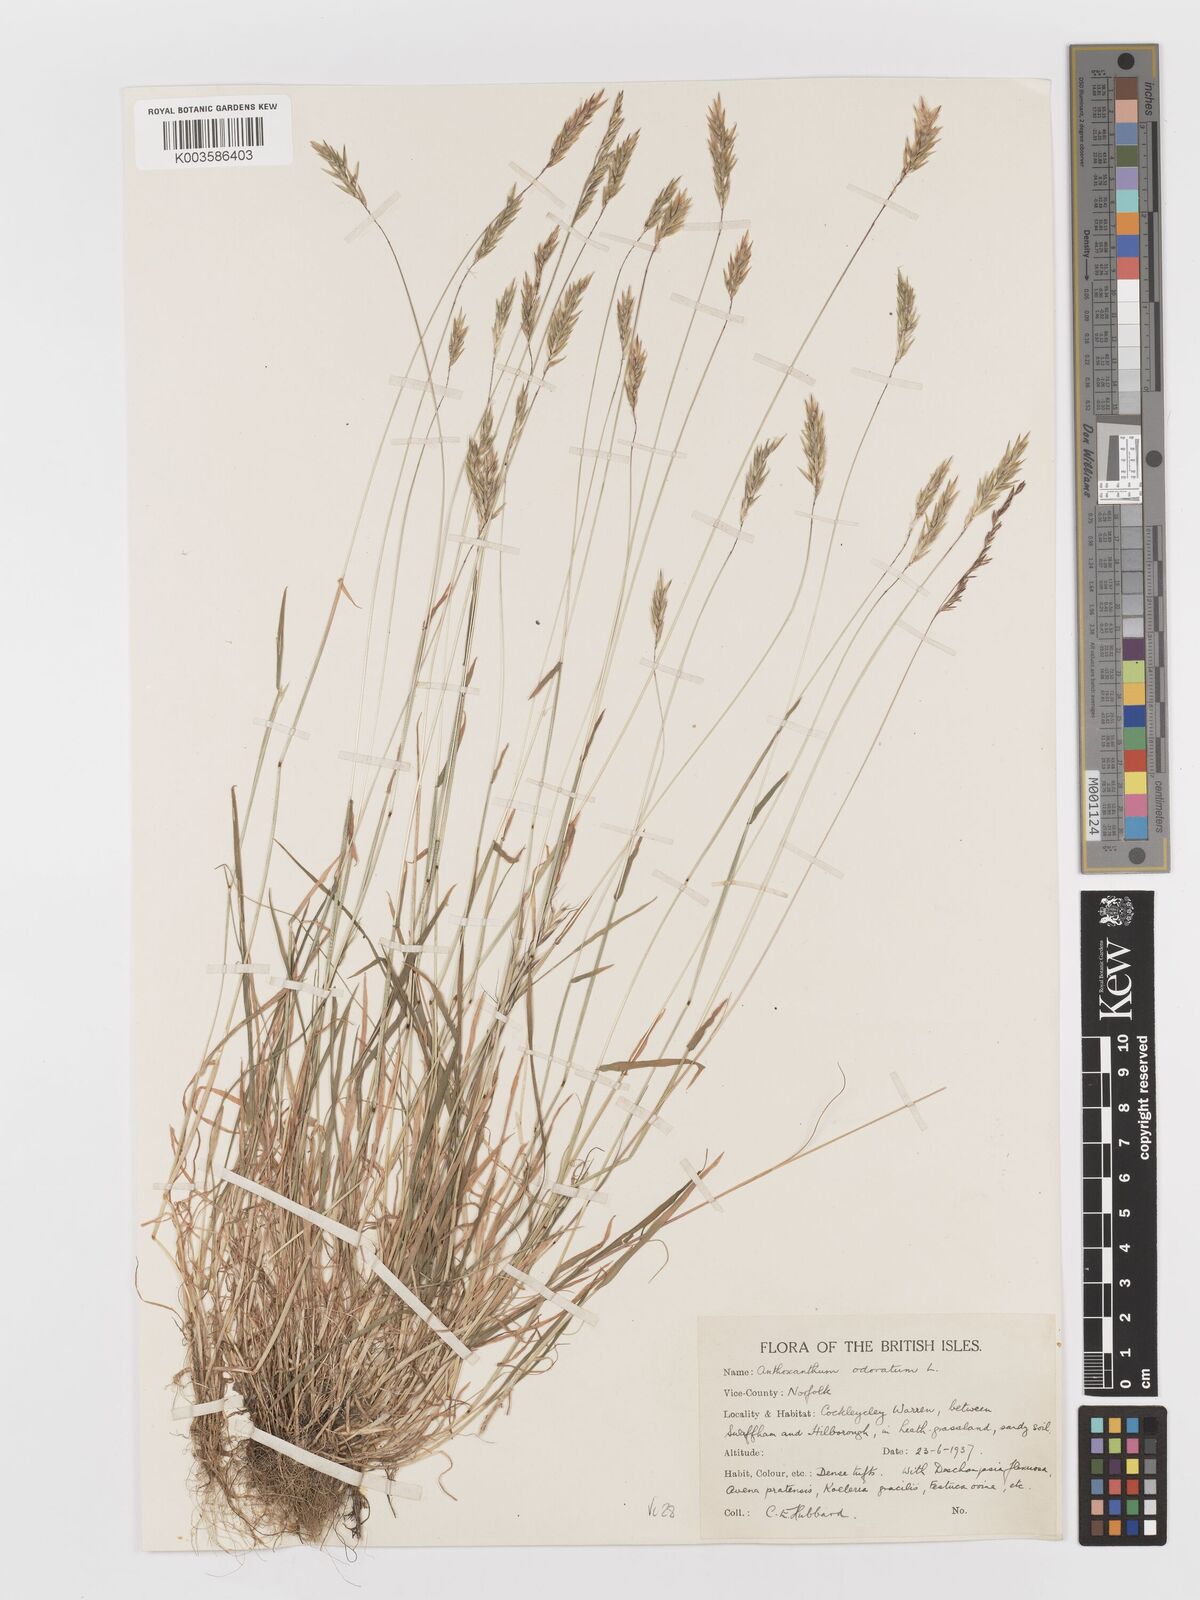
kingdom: Plantae
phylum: Tracheophyta
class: Liliopsida
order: Poales
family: Poaceae
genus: Anthoxanthum
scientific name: Anthoxanthum odoratum
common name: Sweet vernalgrass
